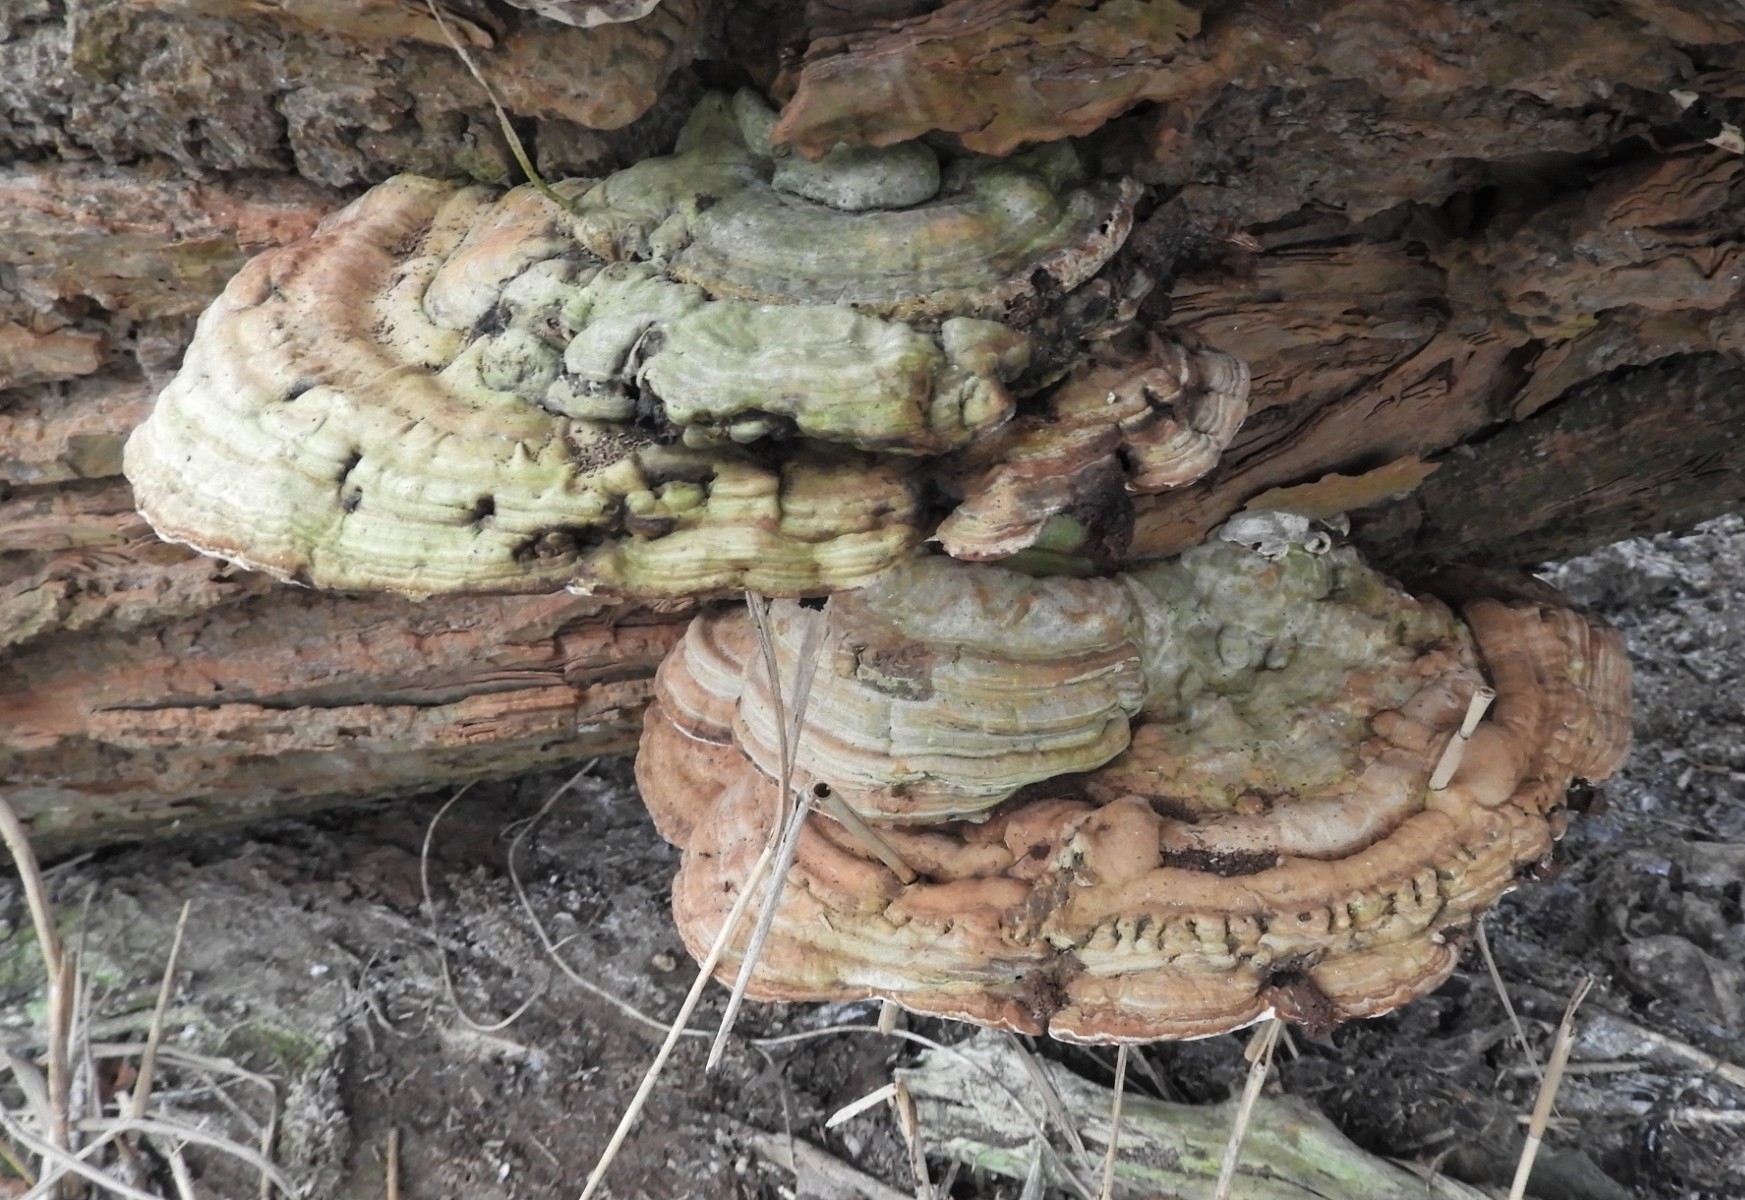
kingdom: Fungi
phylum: Basidiomycota
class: Agaricomycetes
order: Polyporales
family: Polyporaceae
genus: Ganoderma
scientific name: Ganoderma applanatum
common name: flad lakporesvamp
